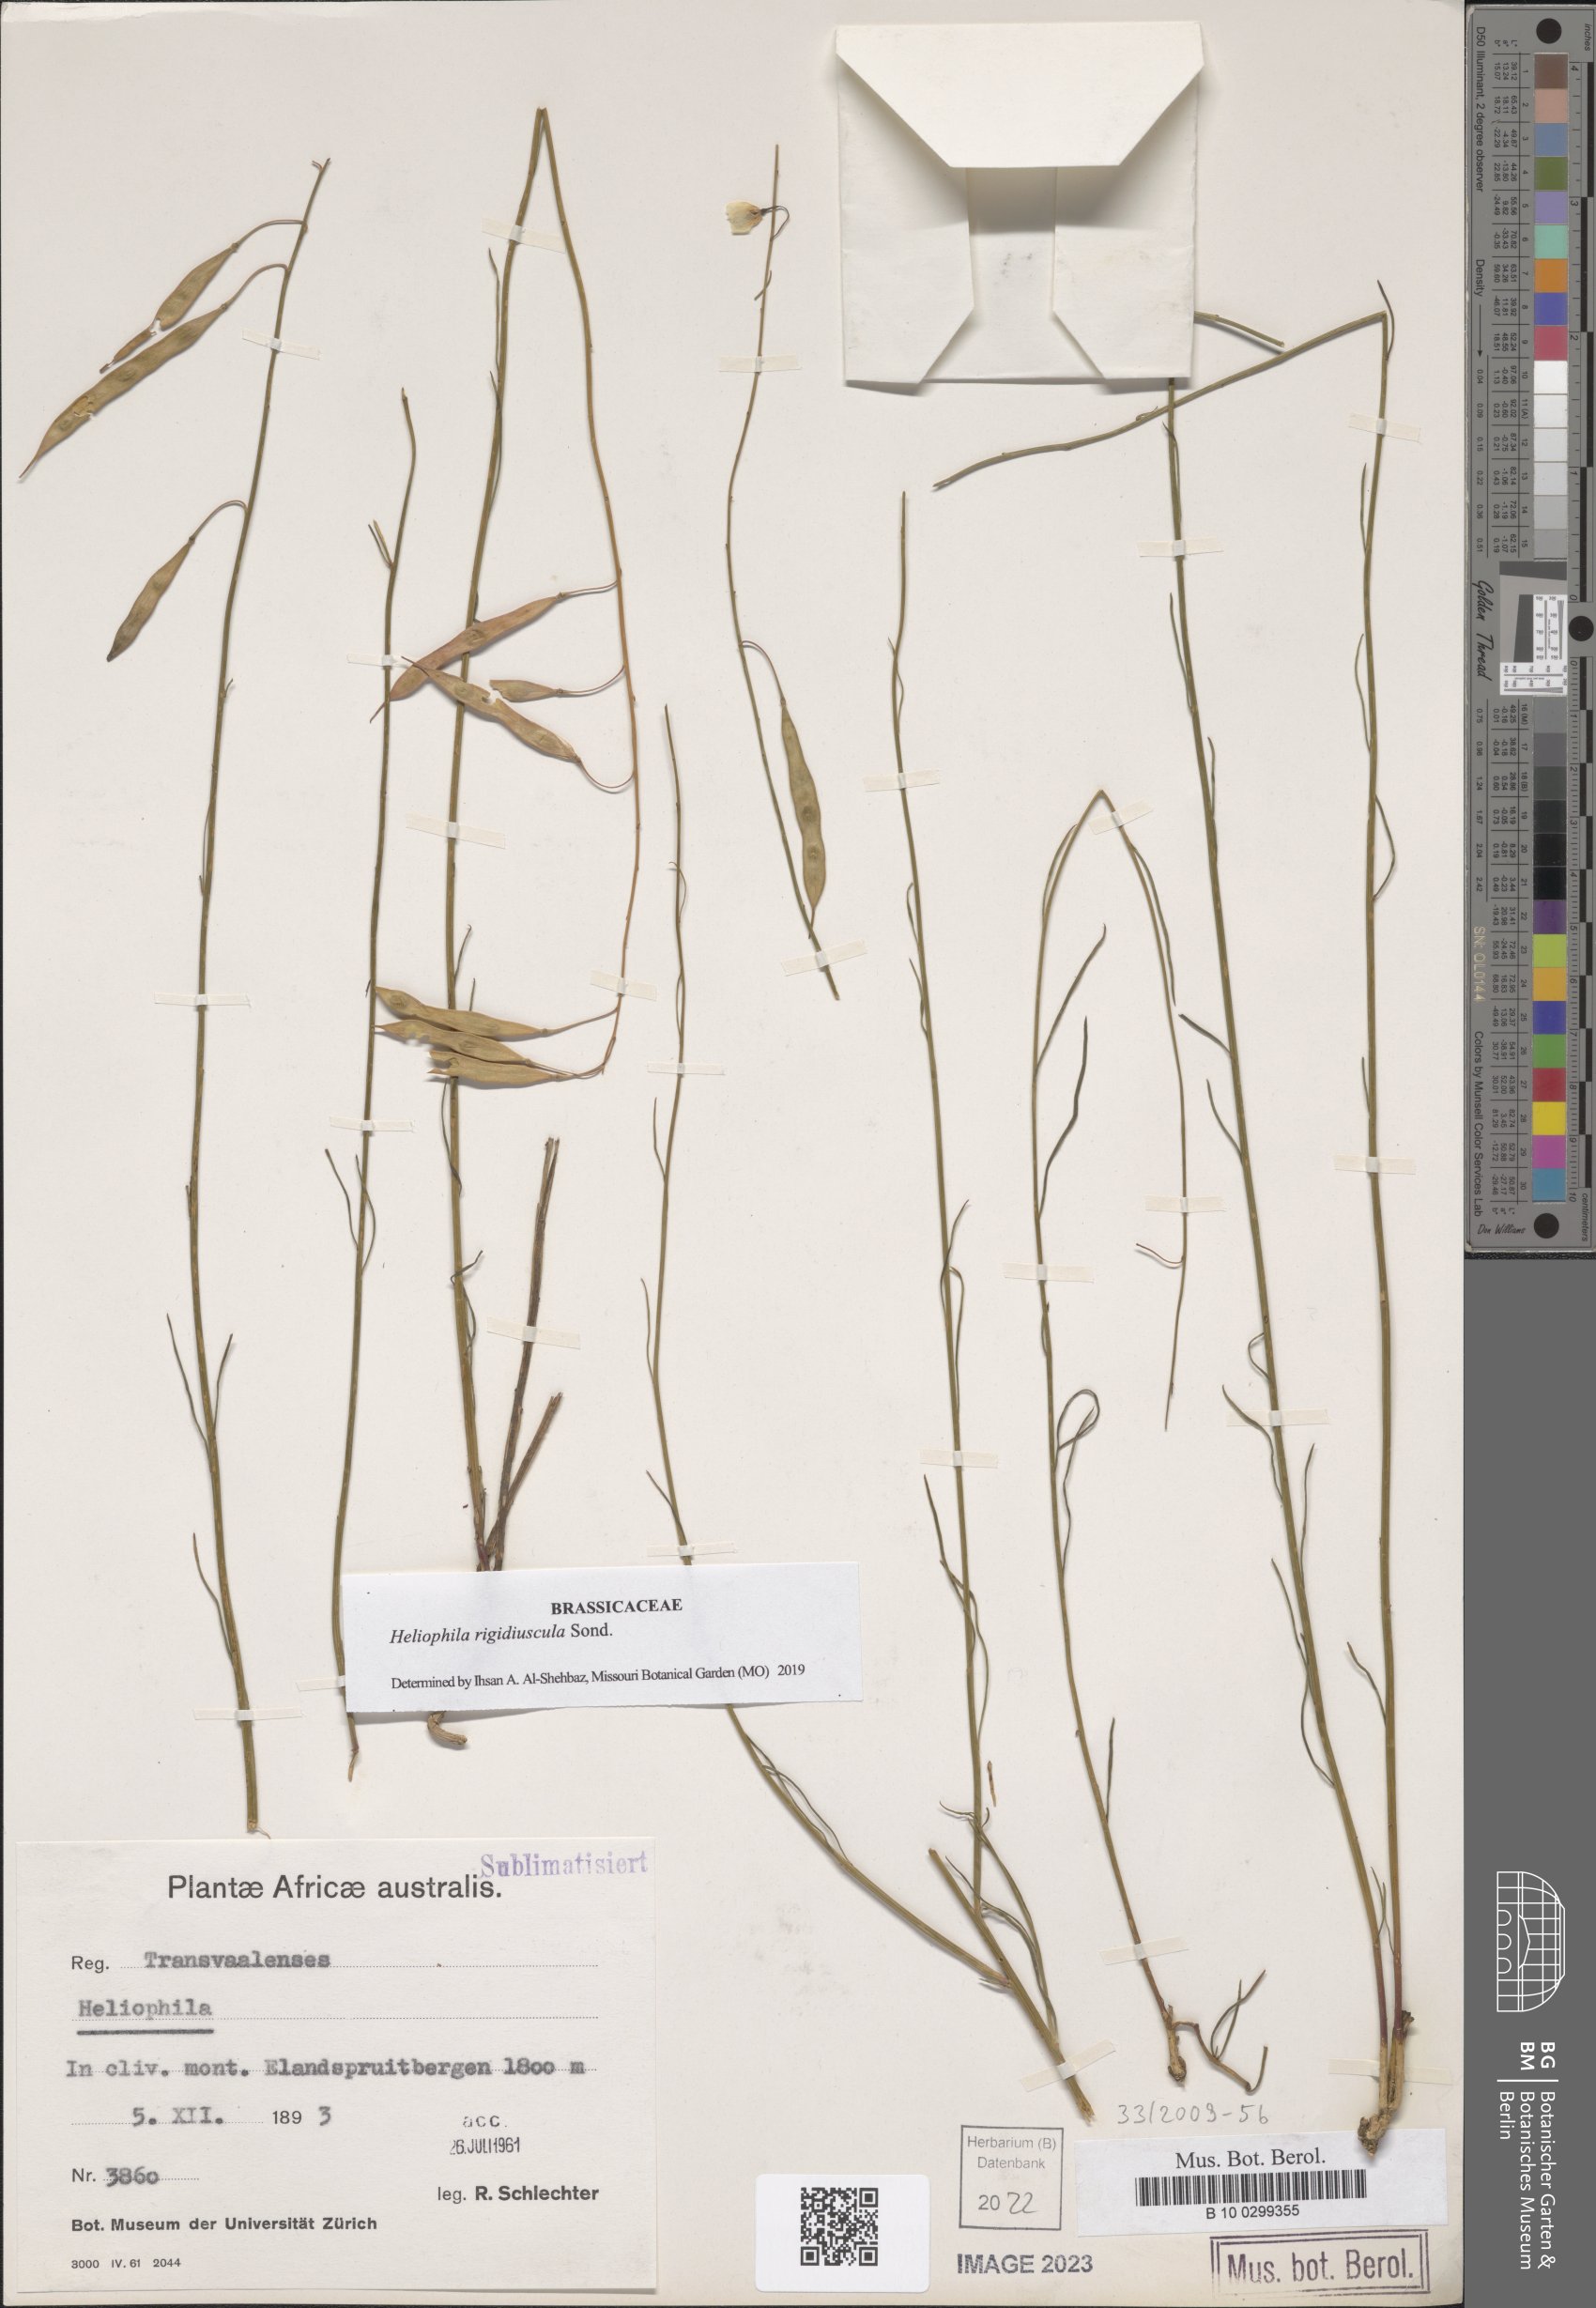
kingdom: Plantae
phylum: Tracheophyta
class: Magnoliopsida
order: Brassicales
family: Brassicaceae
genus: Heliophila
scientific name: Heliophila rigidiuscula
